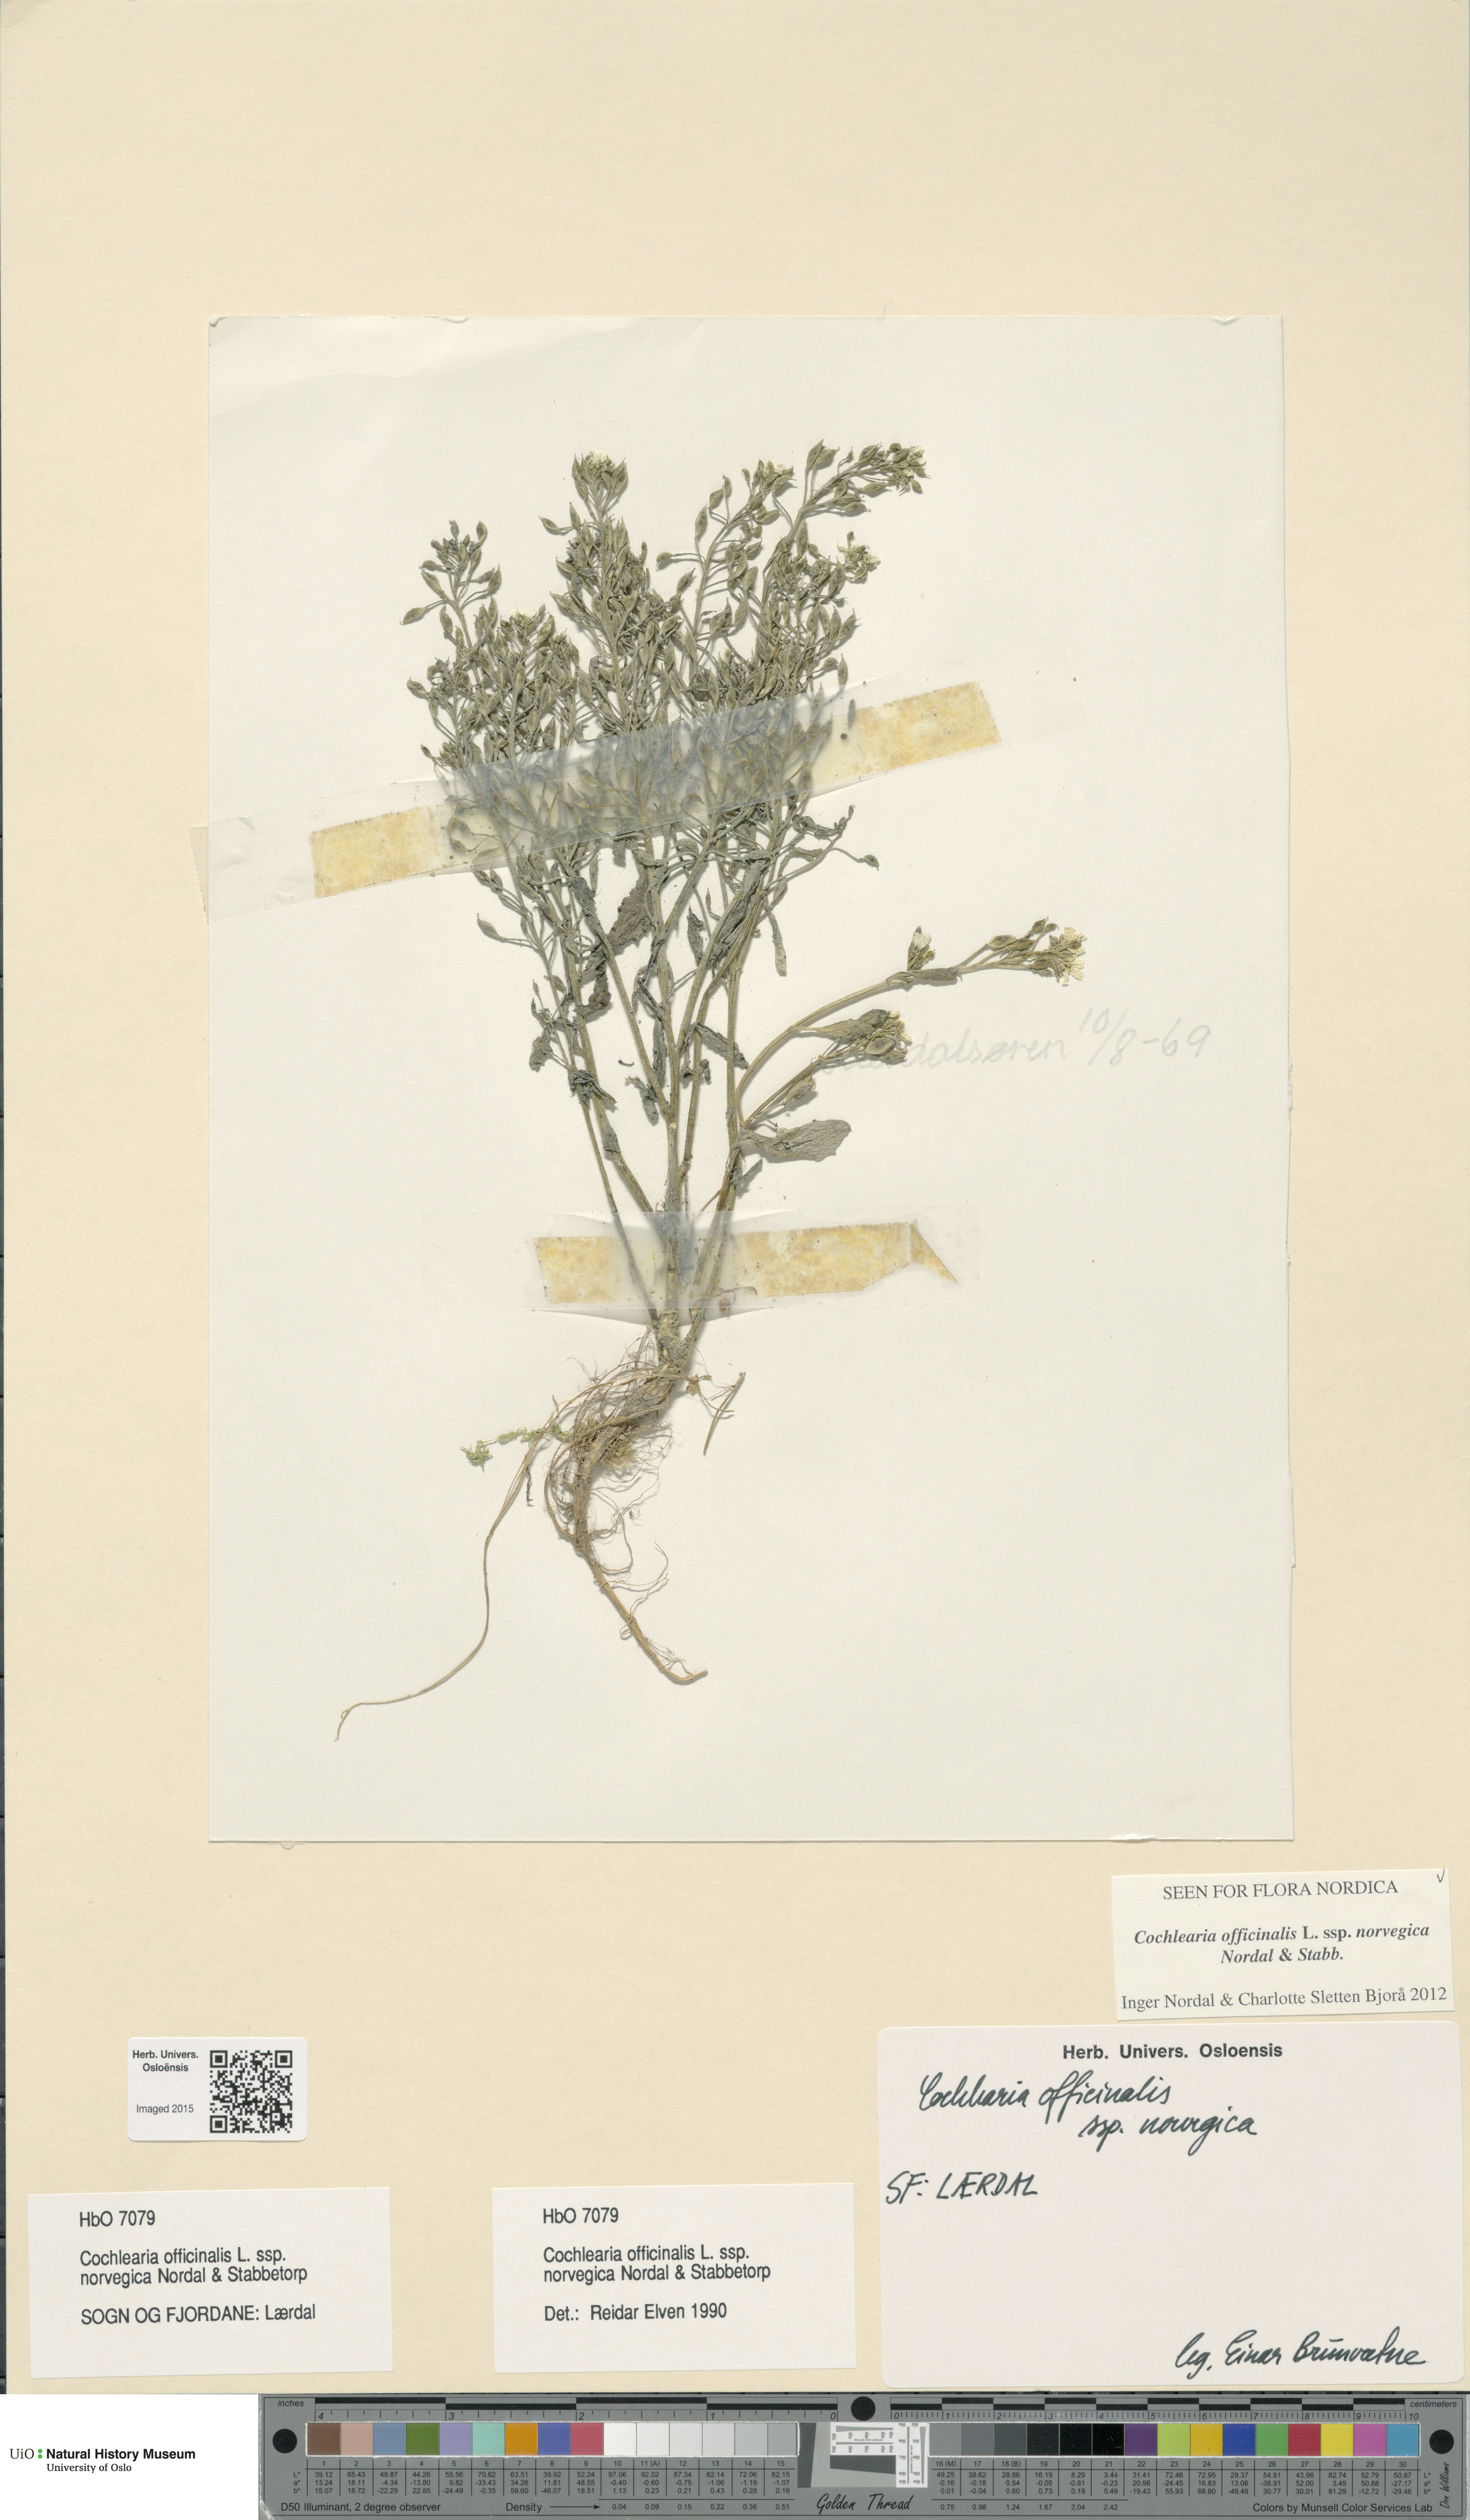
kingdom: Plantae
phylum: Tracheophyta
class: Magnoliopsida
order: Brassicales
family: Brassicaceae
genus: Cochlearia
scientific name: Cochlearia officinalis
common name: Scurvy-grass
